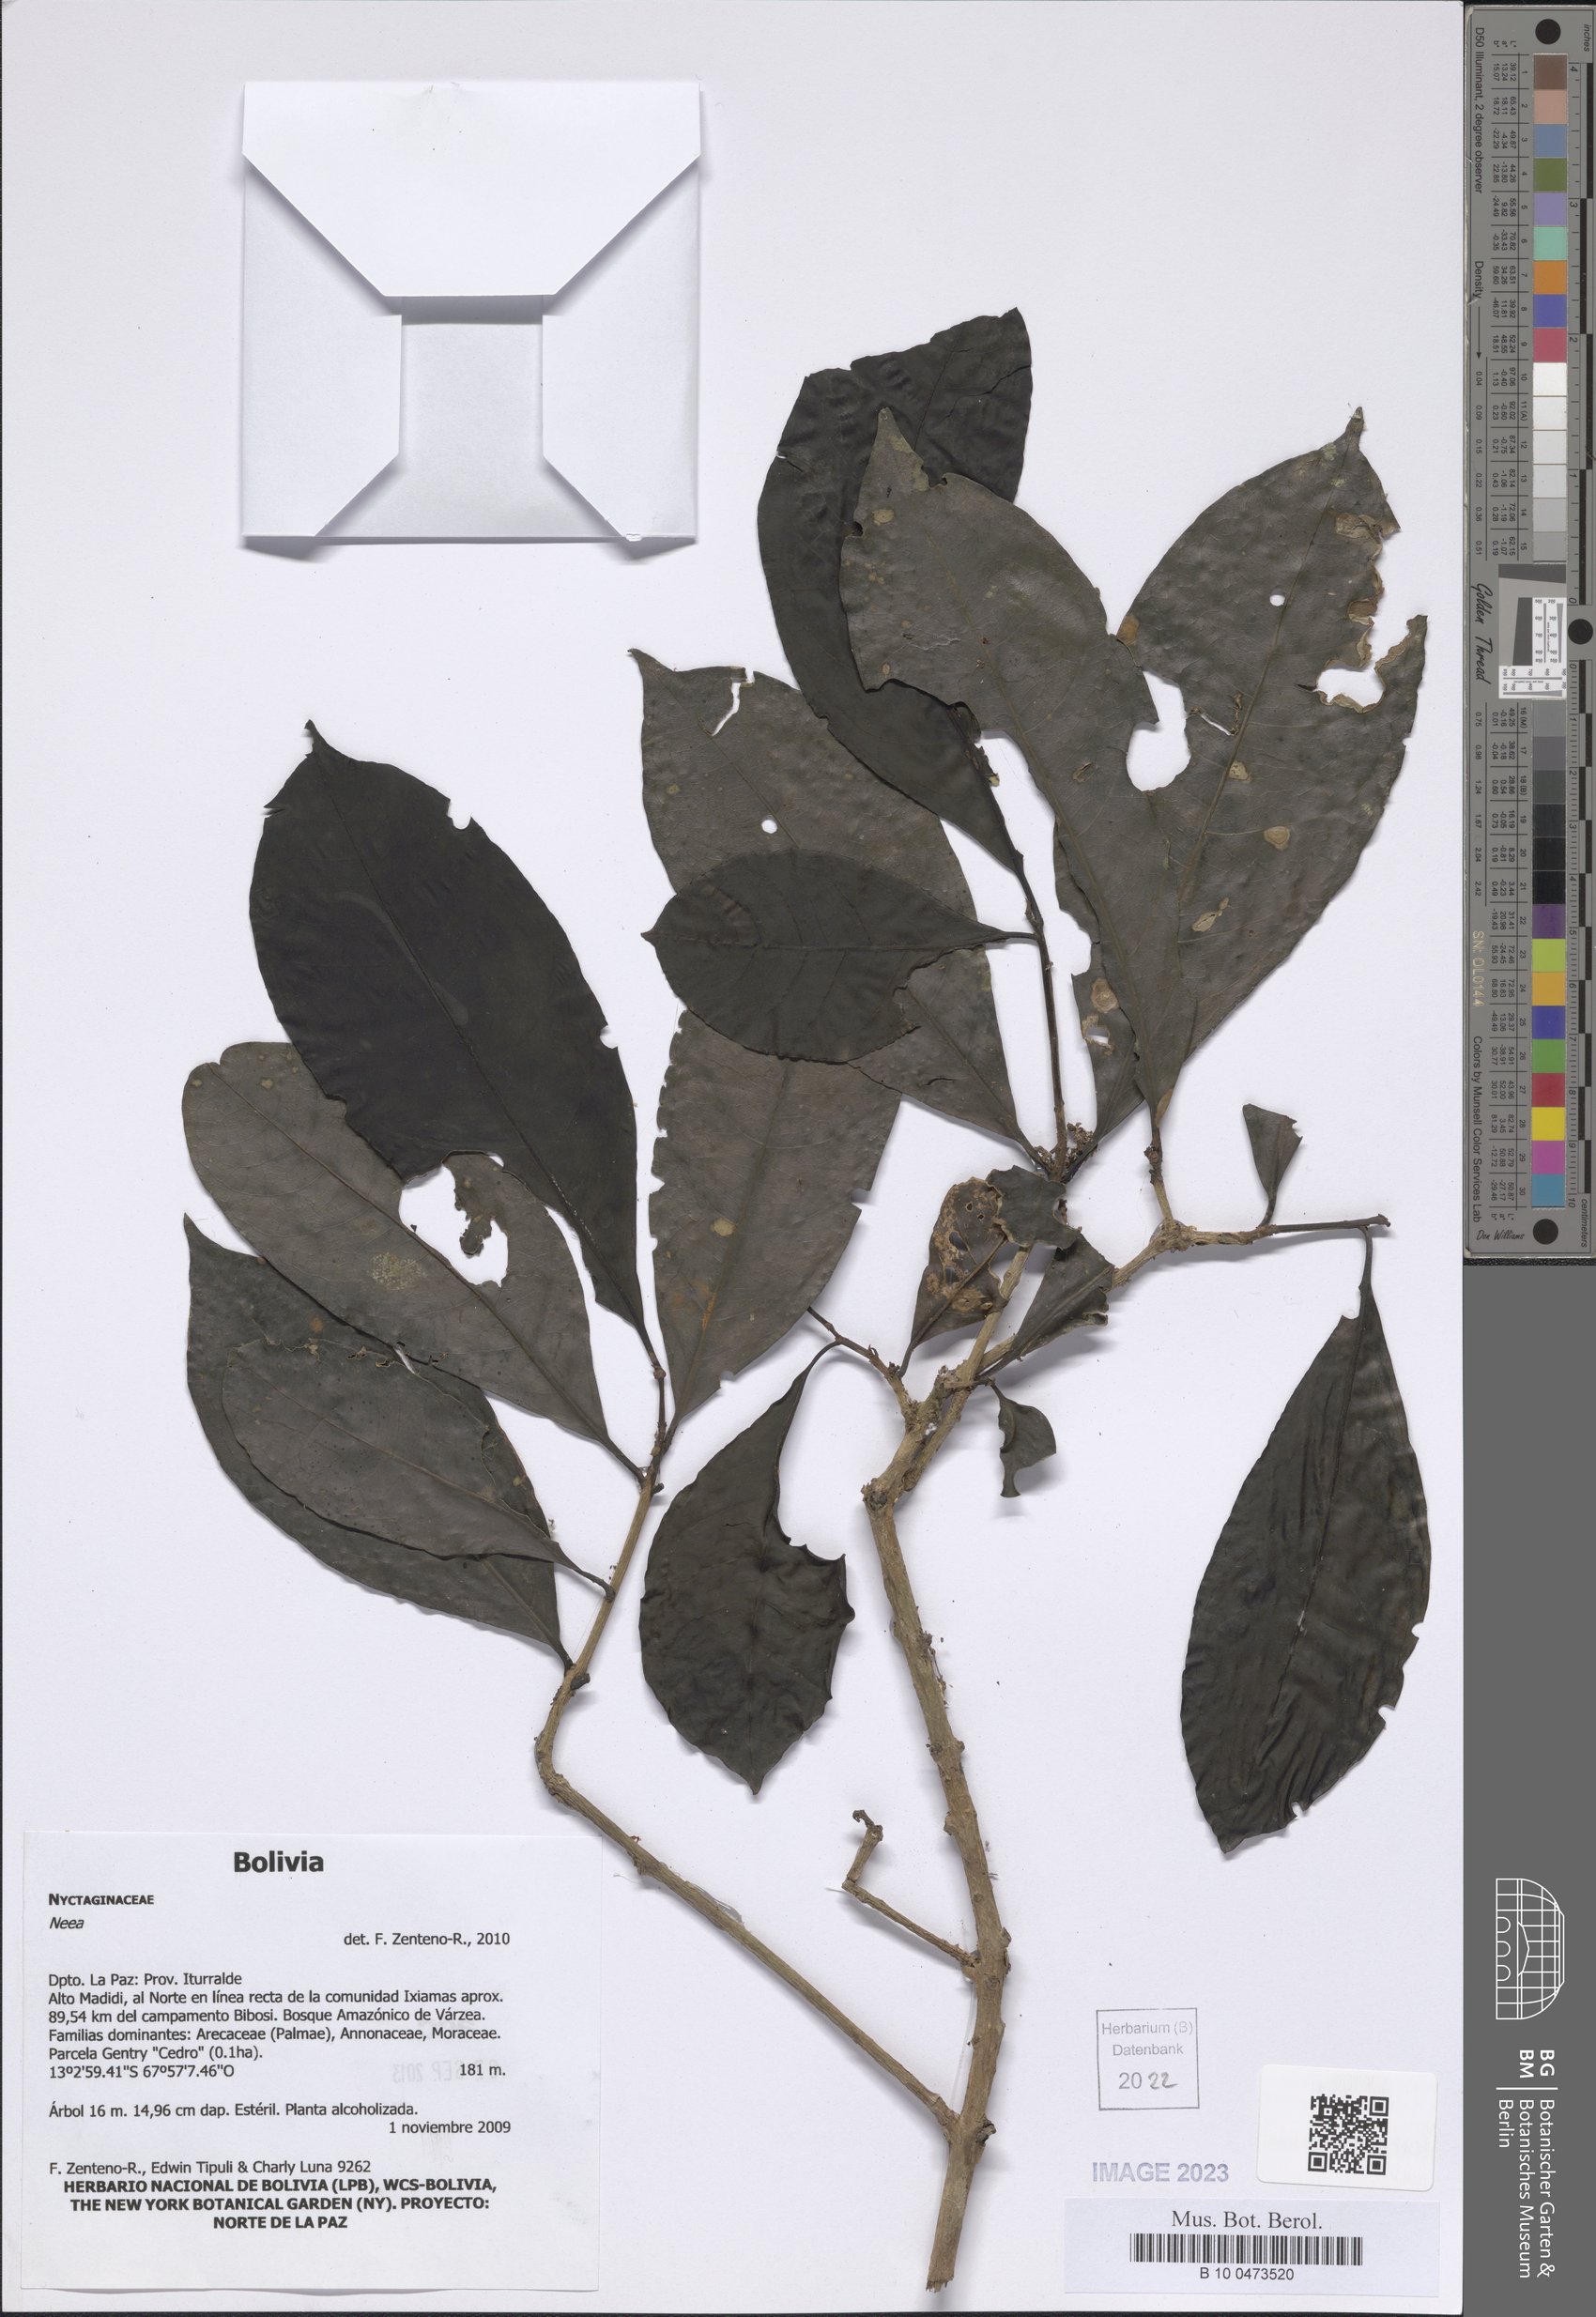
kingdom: Plantae
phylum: Tracheophyta
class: Magnoliopsida
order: Caryophyllales
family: Nyctaginaceae
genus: Neea
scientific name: Neea
